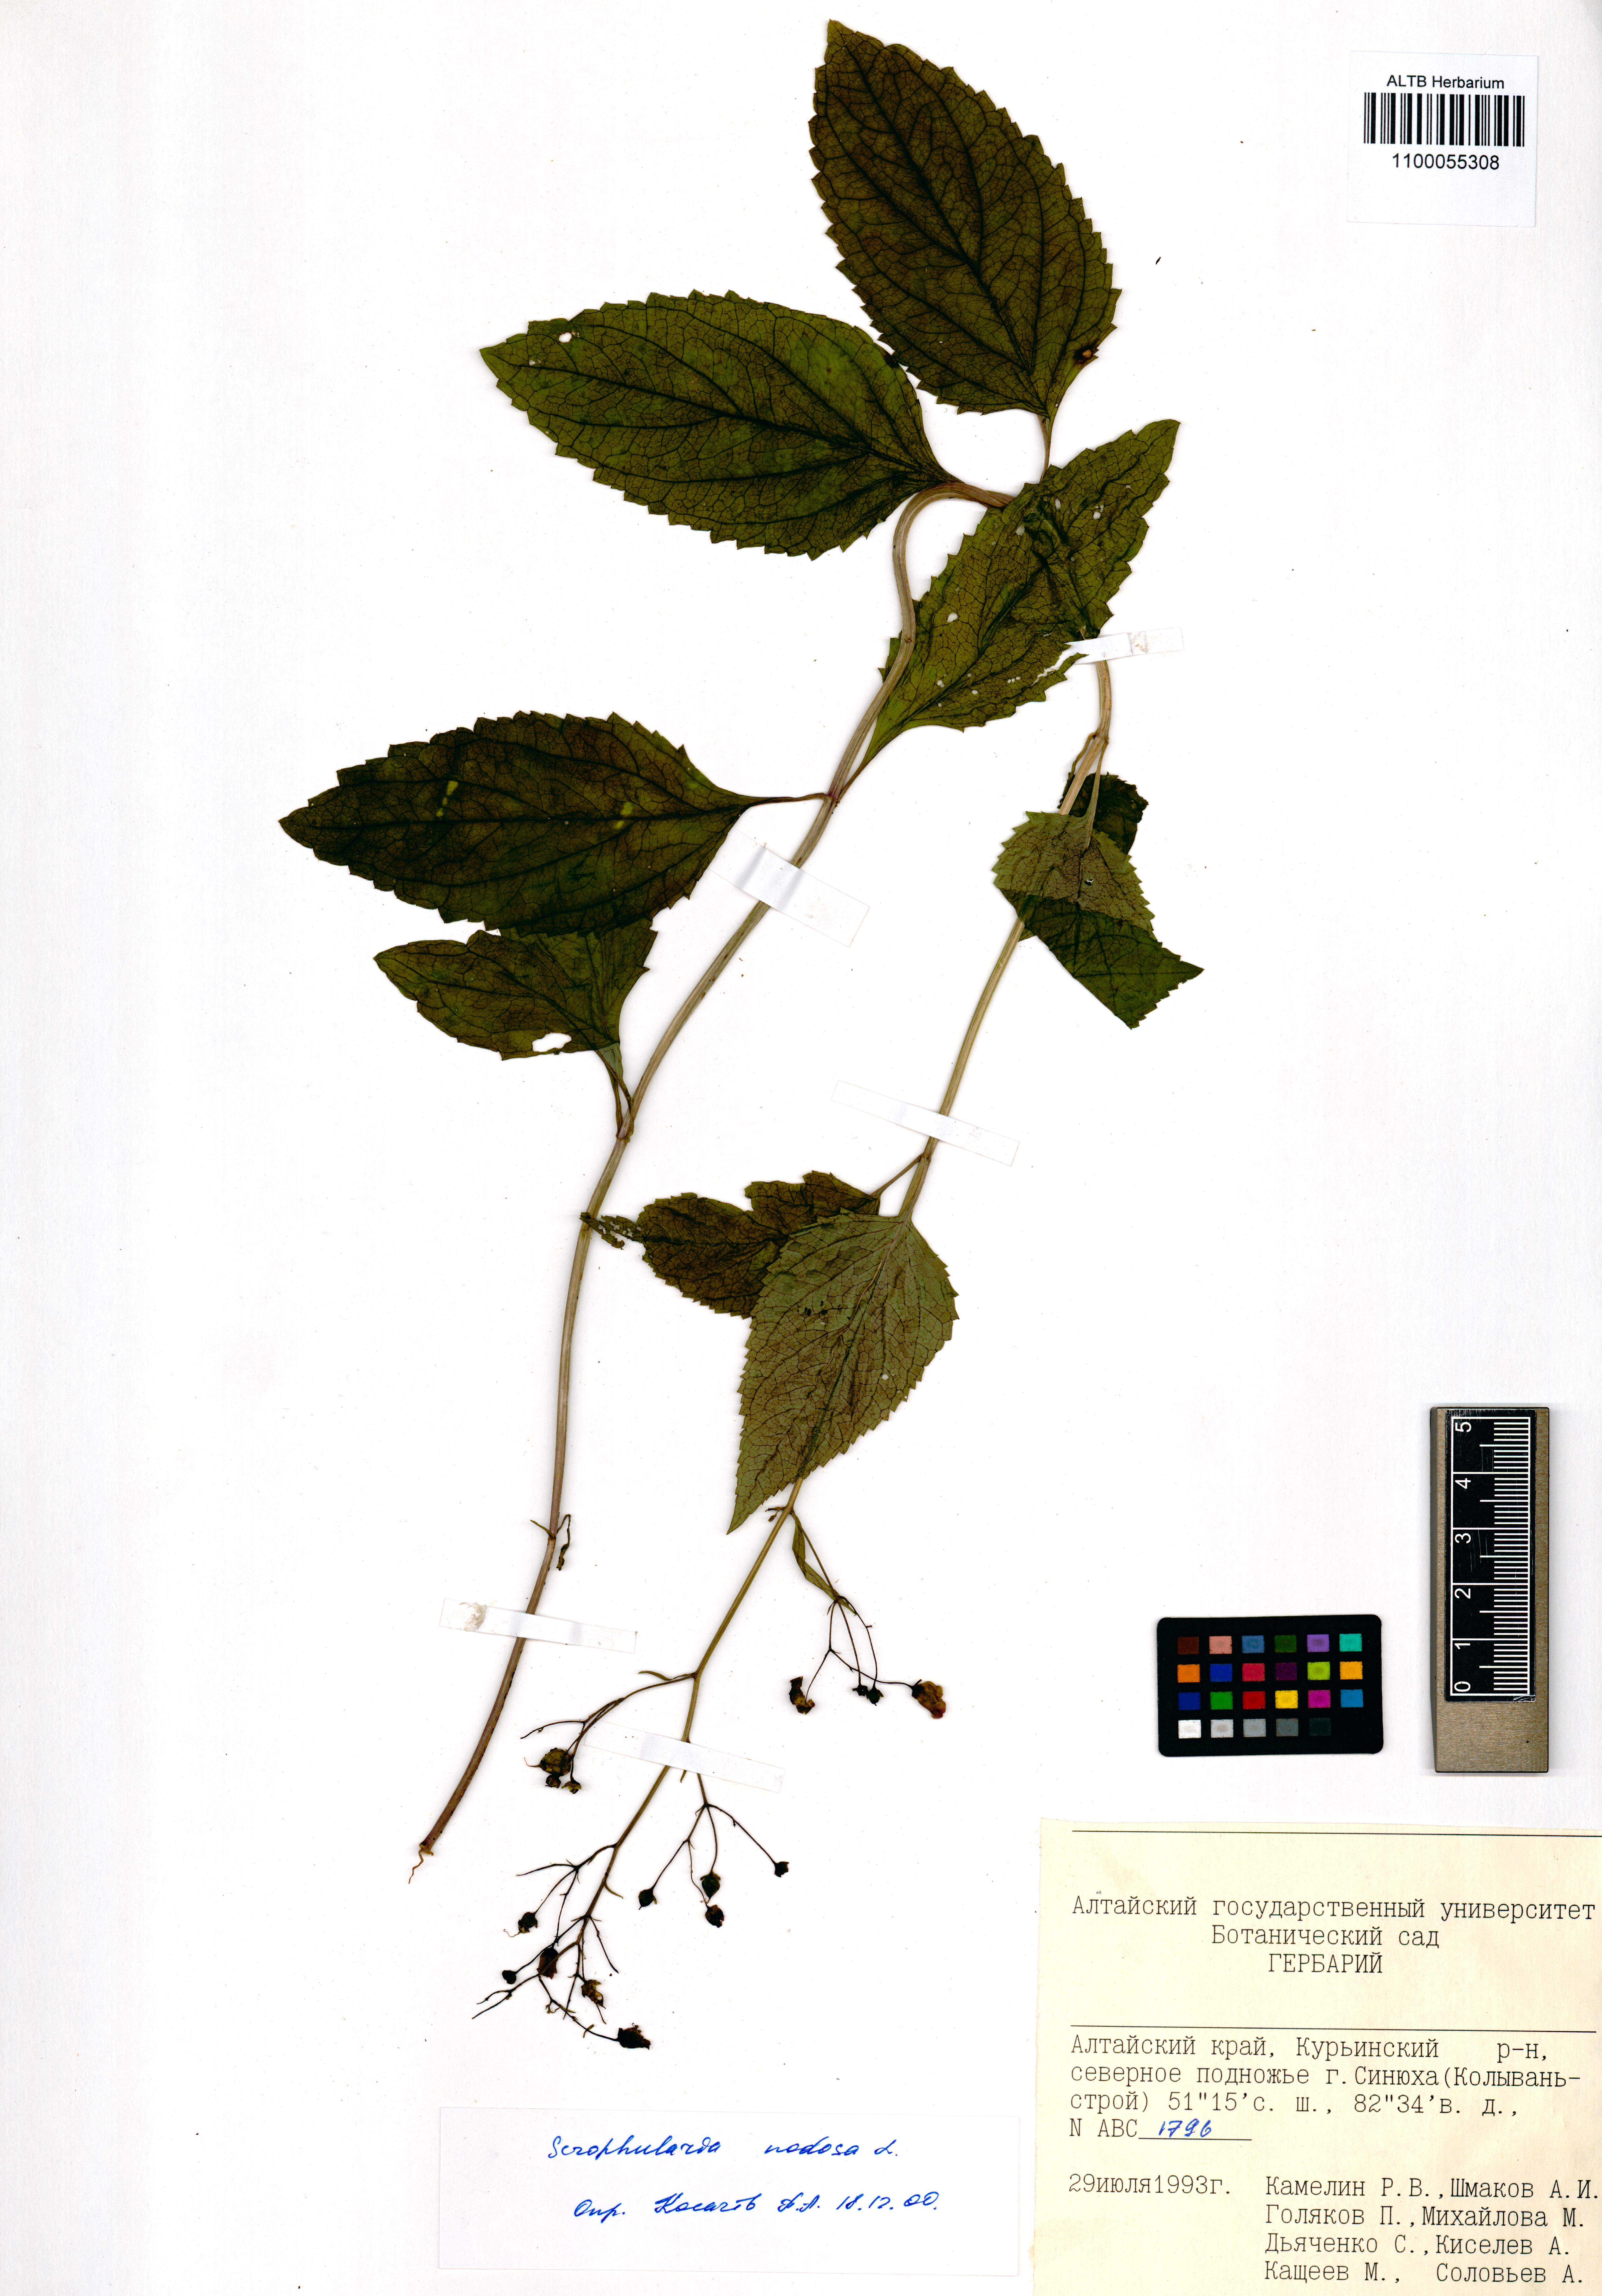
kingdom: Plantae
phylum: Tracheophyta
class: Magnoliopsida
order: Lamiales
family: Scrophulariaceae
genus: Scrophularia
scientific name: Scrophularia nodosa
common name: Common figwort
